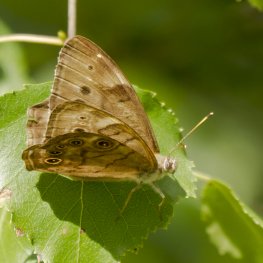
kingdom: Animalia
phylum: Arthropoda
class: Insecta
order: Lepidoptera
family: Nymphalidae
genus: Lethe
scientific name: Lethe eurydice
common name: Eyed Brown
